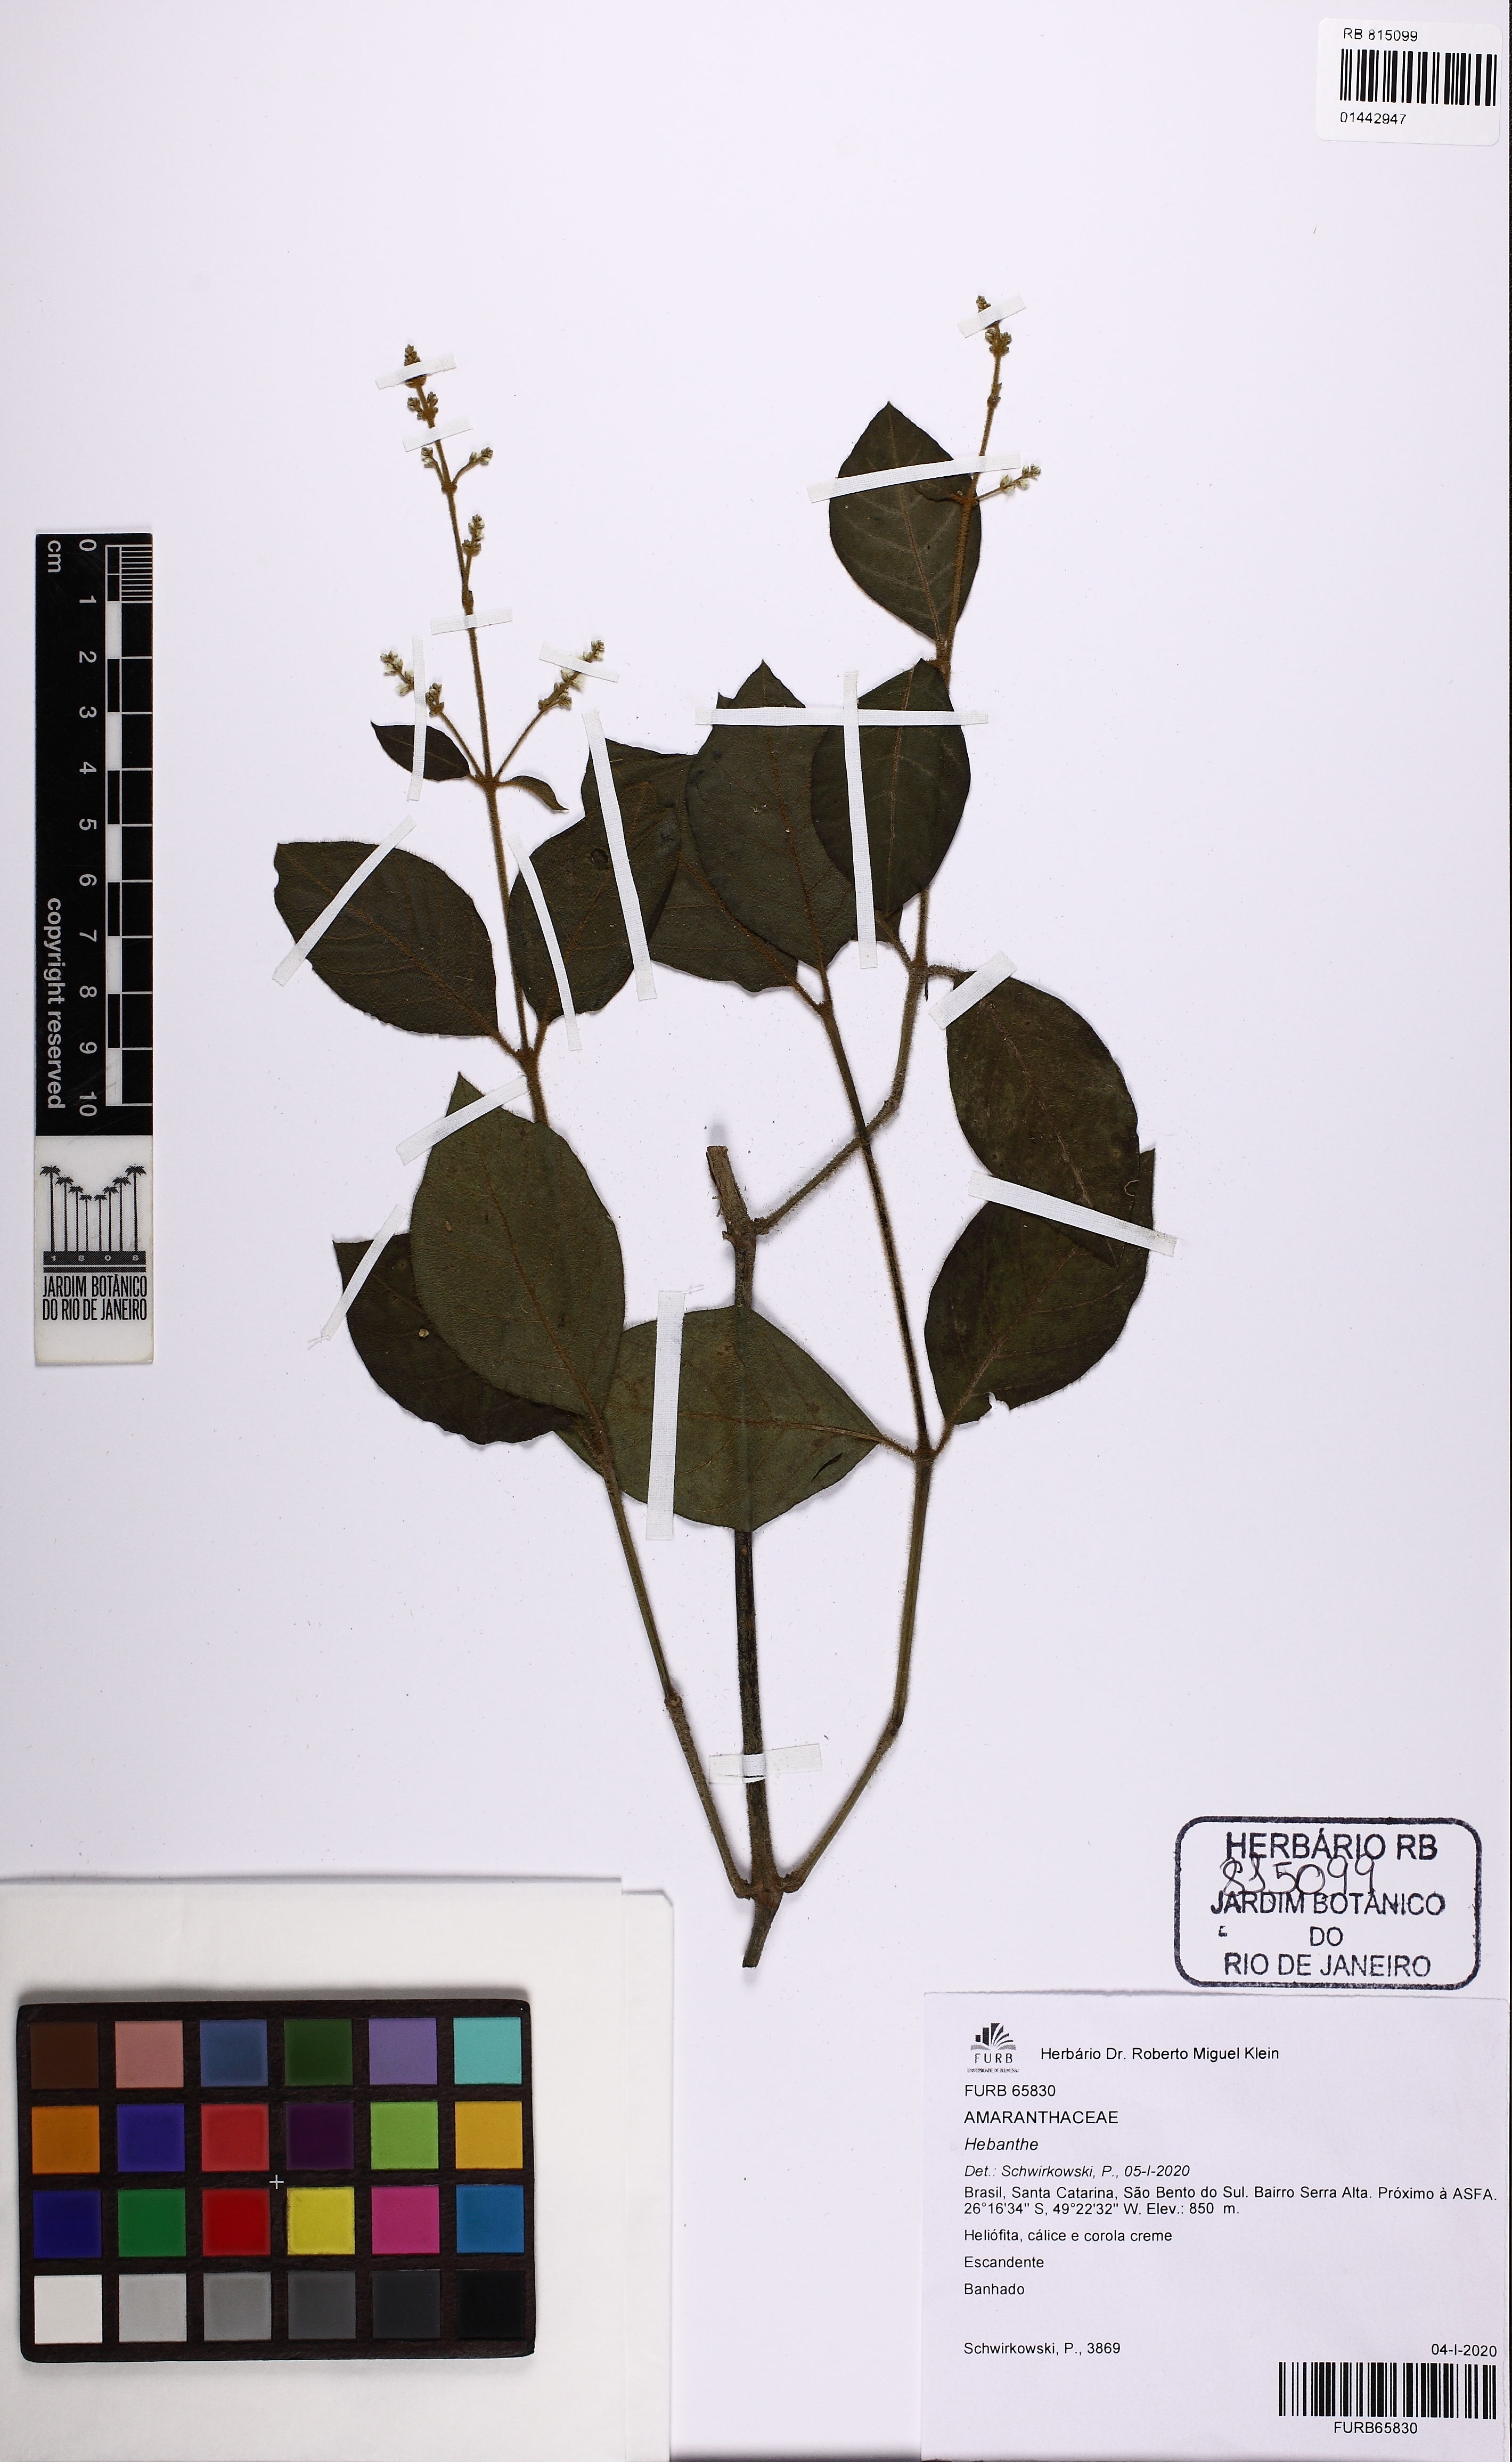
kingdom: Plantae
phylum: Tracheophyta
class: Magnoliopsida
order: Caryophyllales
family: Amaranthaceae
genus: Hebanthe
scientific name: Hebanthe
